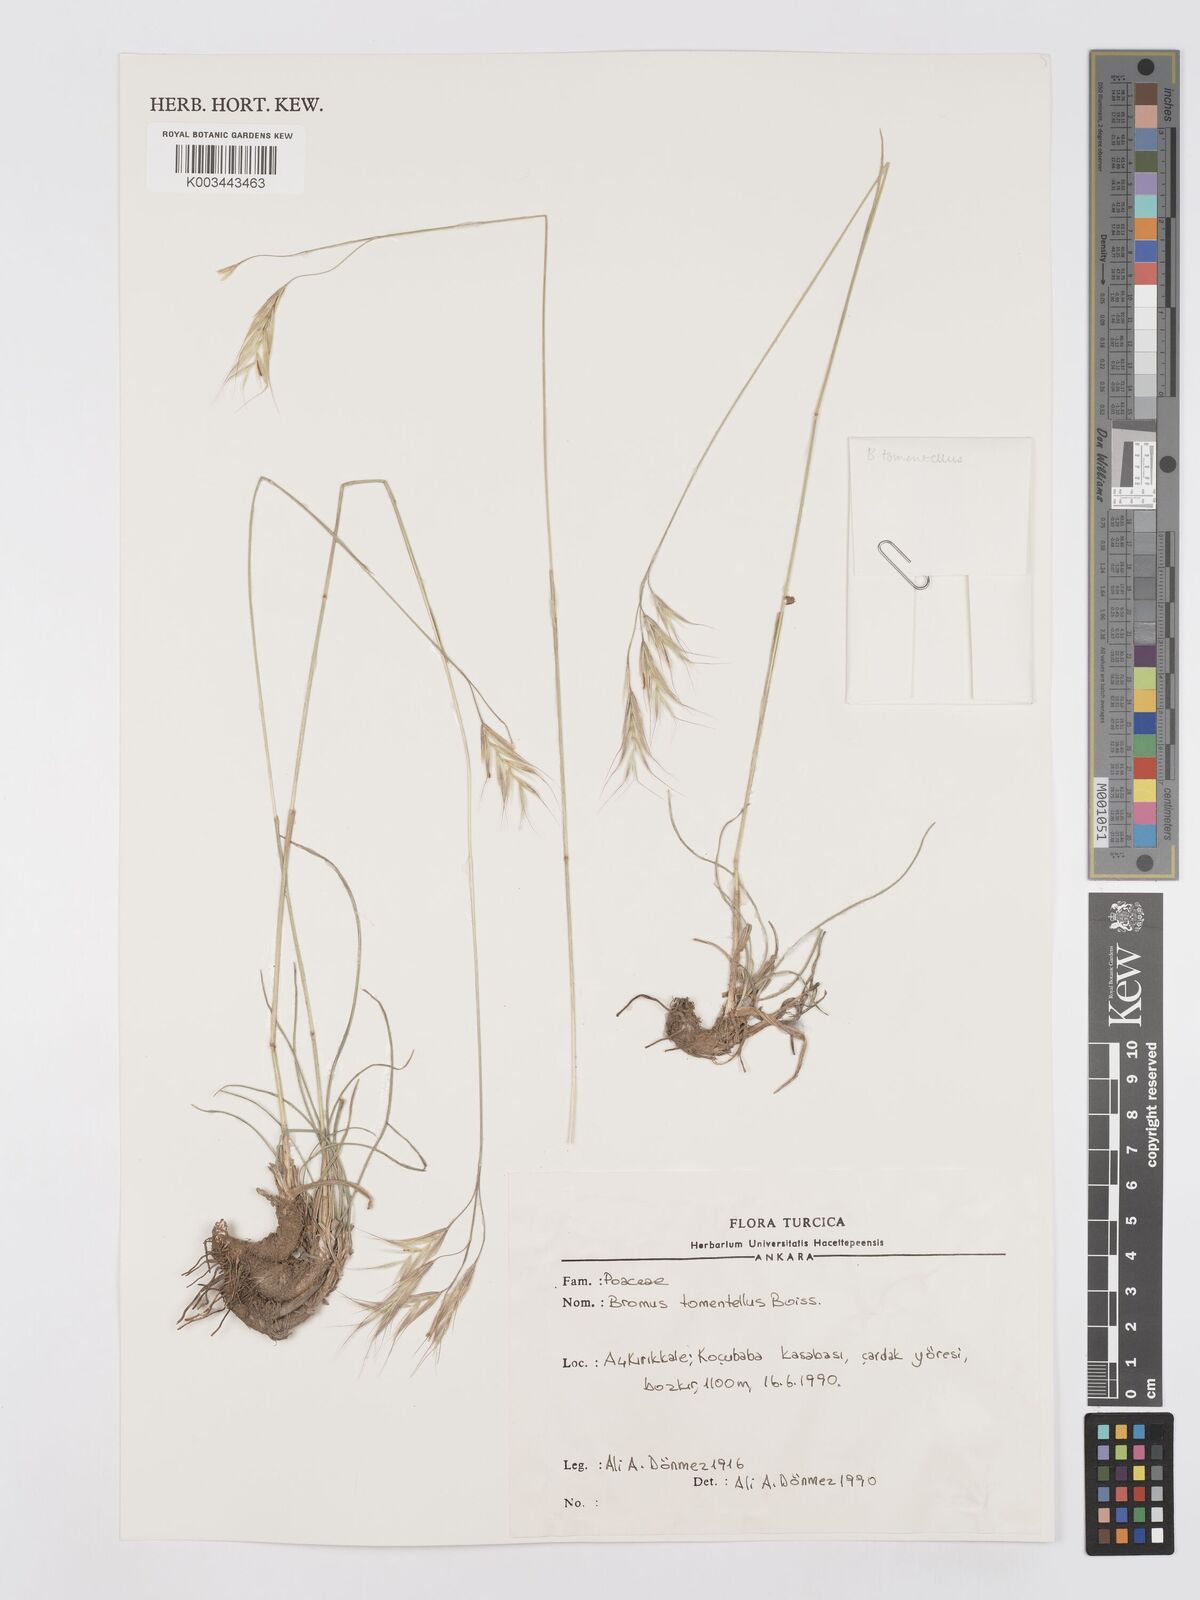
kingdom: Plantae
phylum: Tracheophyta
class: Liliopsida
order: Poales
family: Poaceae
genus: Bromus
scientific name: Bromus tomentellus
